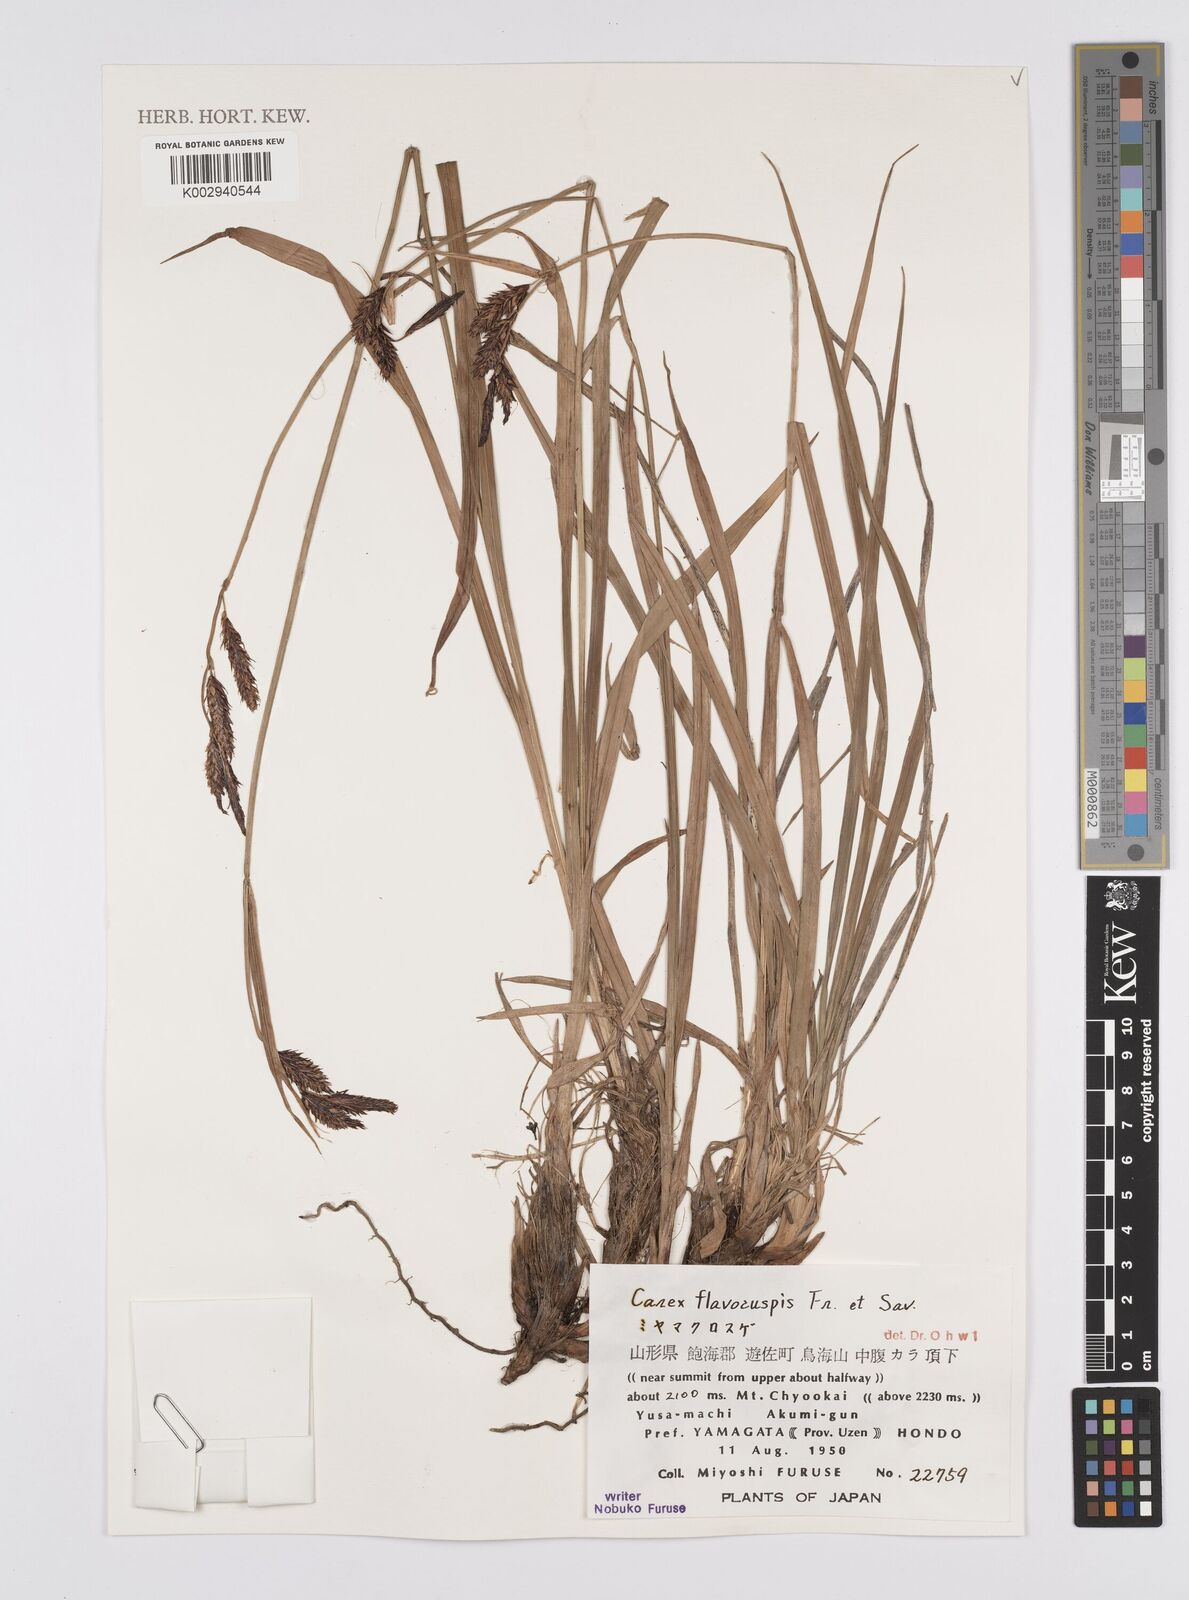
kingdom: Plantae
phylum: Tracheophyta
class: Liliopsida
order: Poales
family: Cyperaceae
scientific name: Cyperaceae
